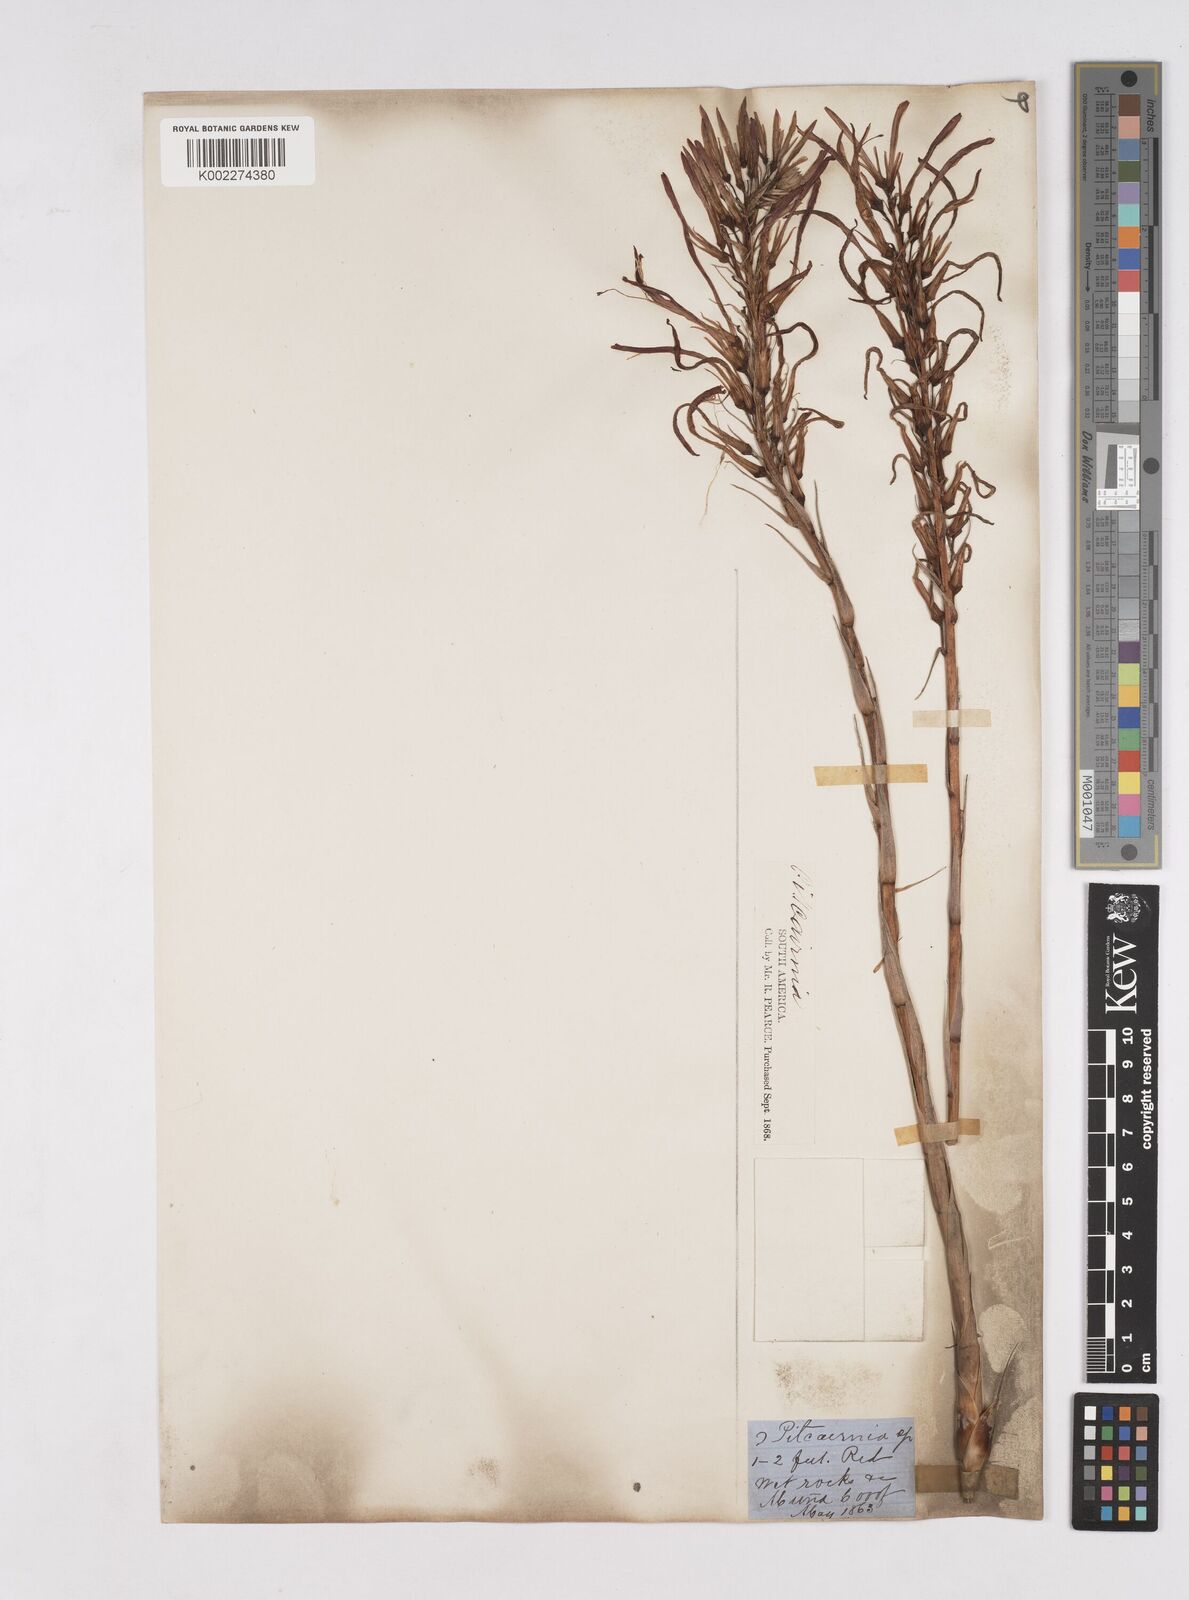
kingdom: Plantae
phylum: Tracheophyta
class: Liliopsida
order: Poales
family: Bromeliaceae
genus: Pitcairnia
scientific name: Pitcairnia
